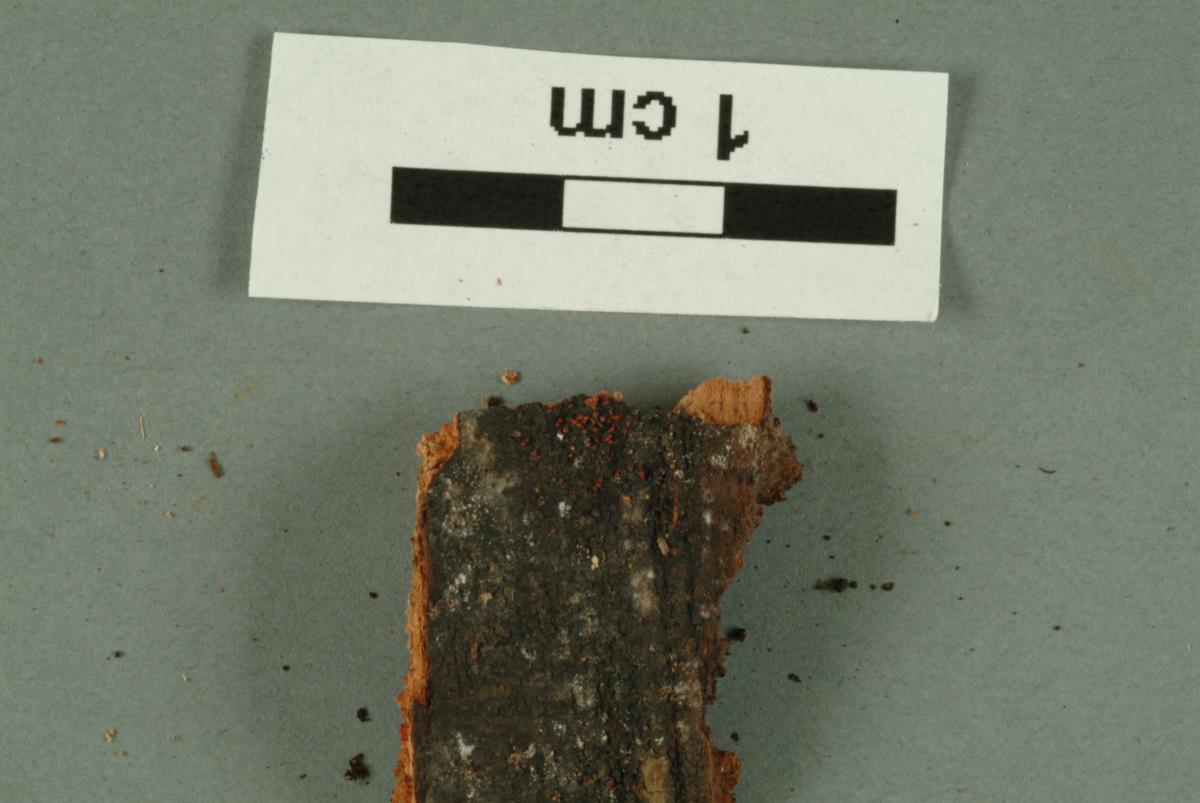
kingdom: Fungi
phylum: Ascomycota
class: Sordariomycetes
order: Hypocreales
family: Bionectriaceae
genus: Bionectria
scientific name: Bionectria
